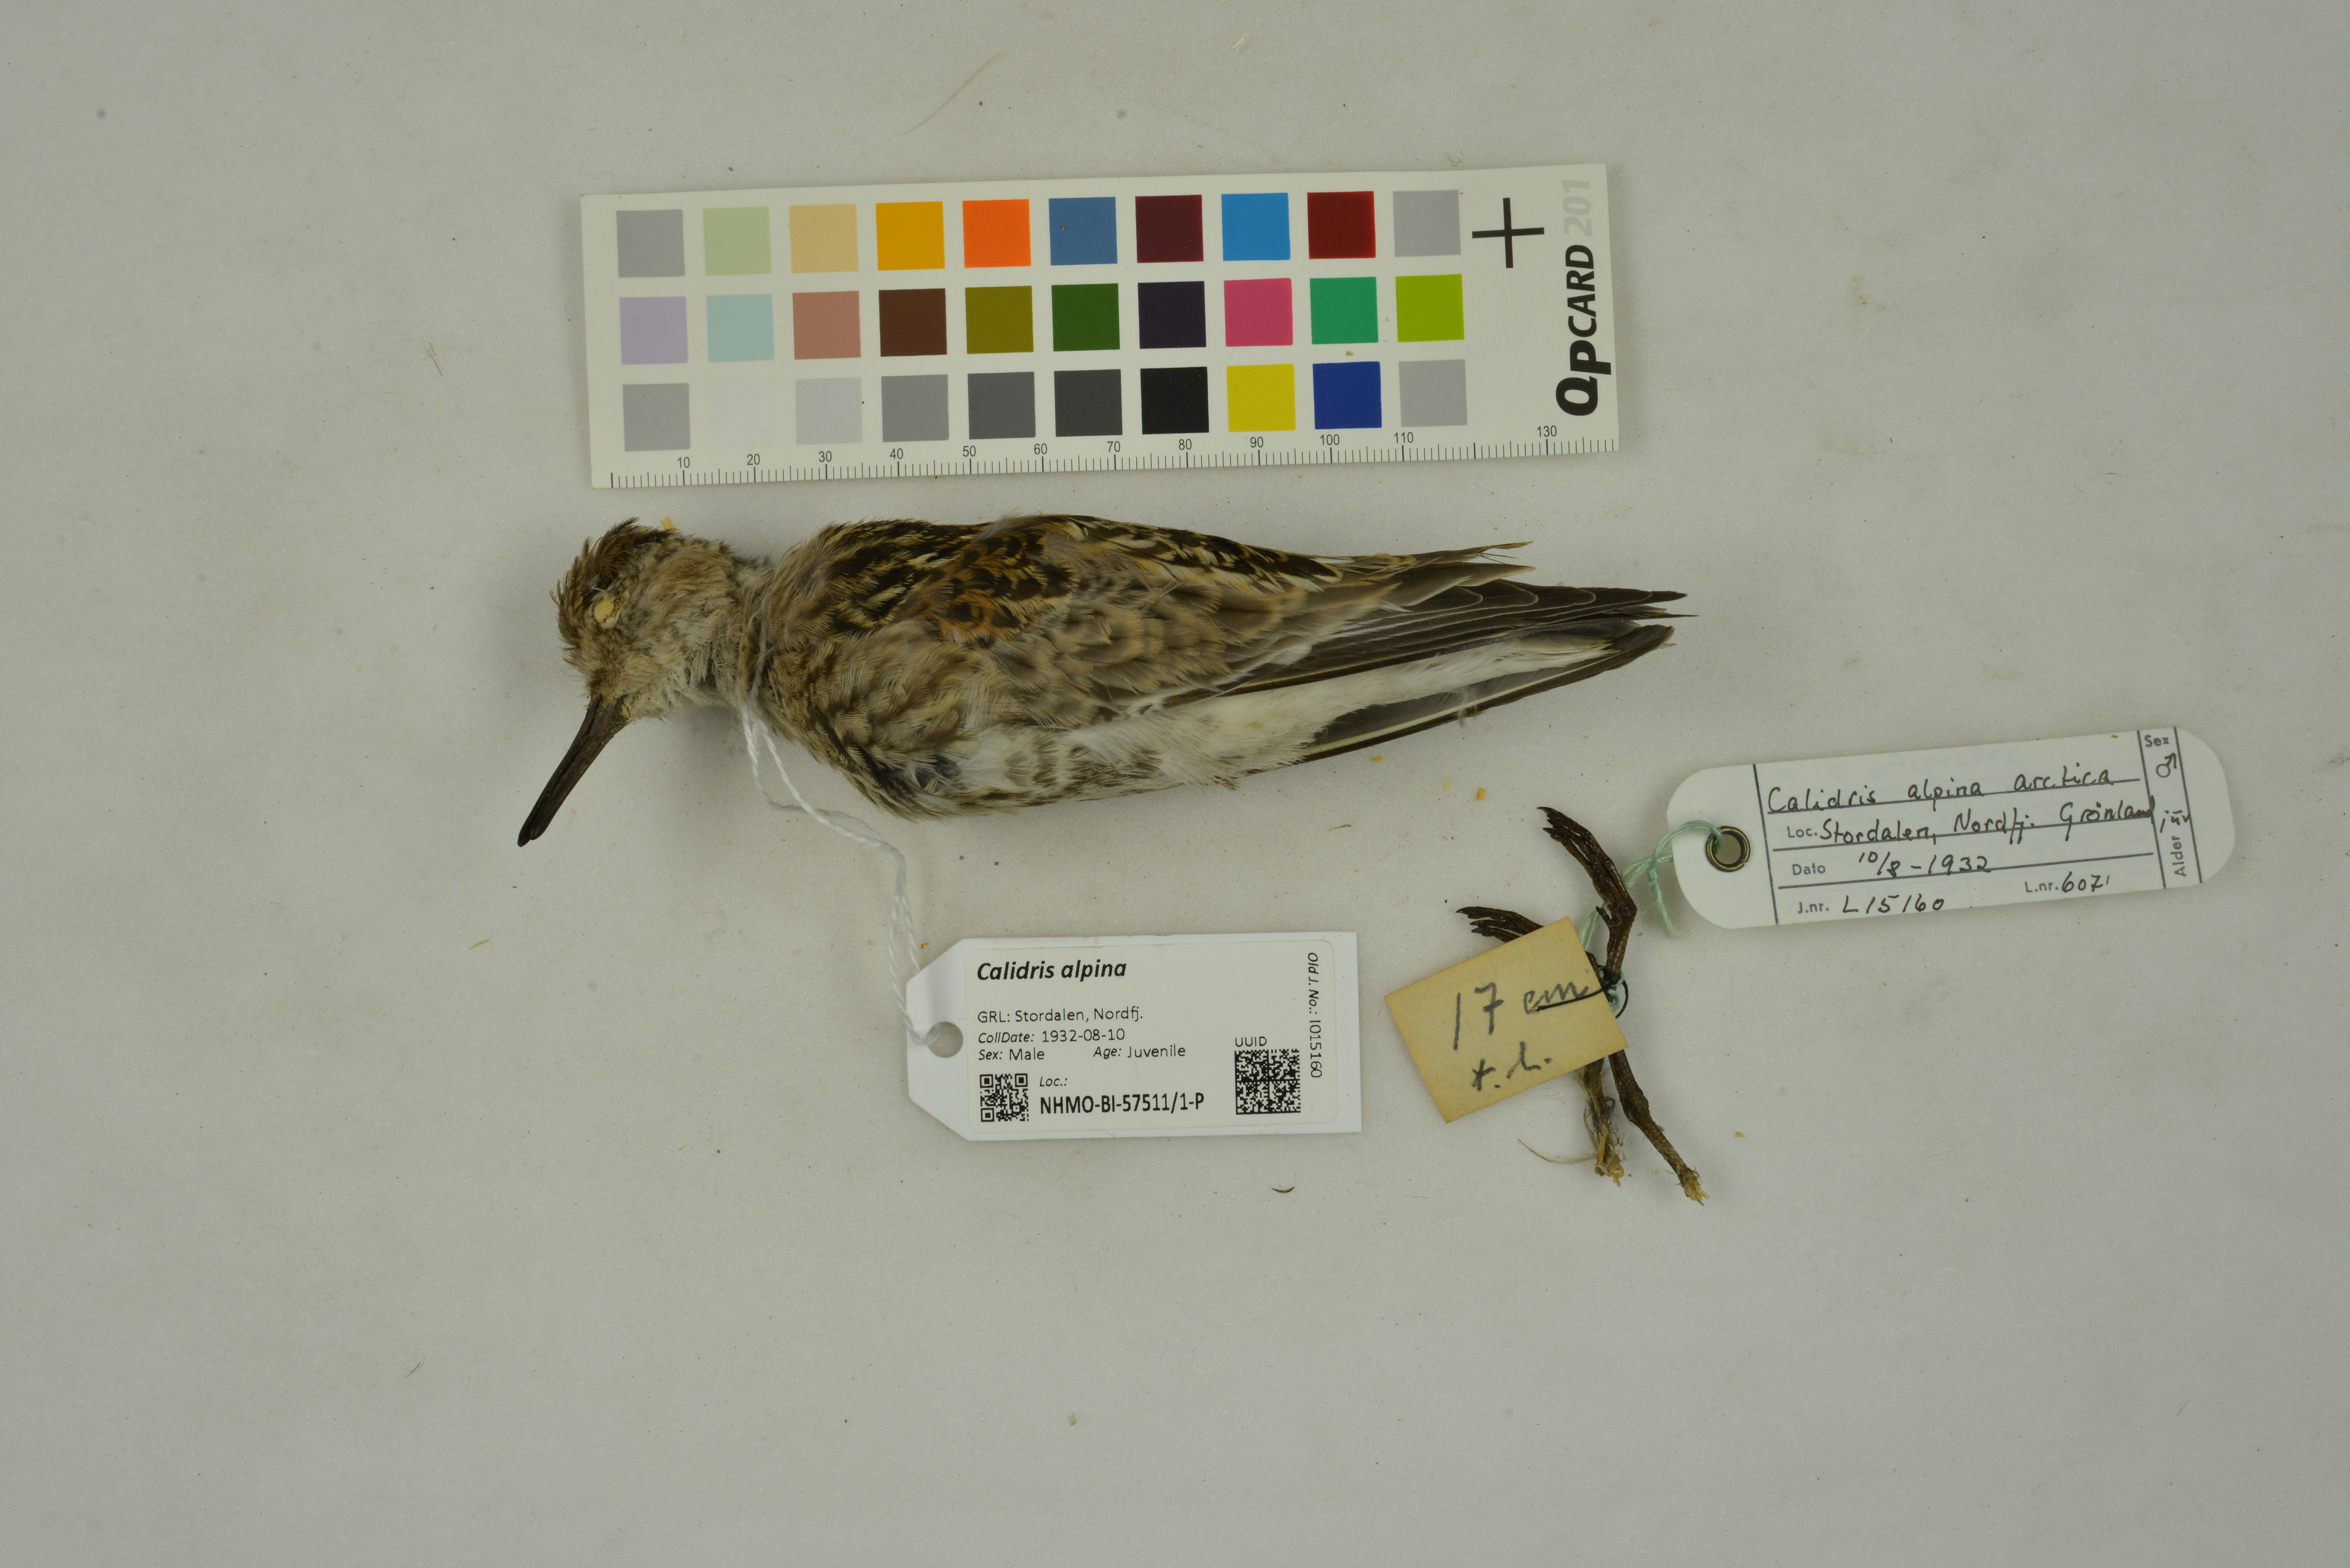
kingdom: Animalia
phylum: Chordata
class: Aves
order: Charadriiformes
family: Scolopacidae
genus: Calidris
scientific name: Calidris alpina
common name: Dunlin
